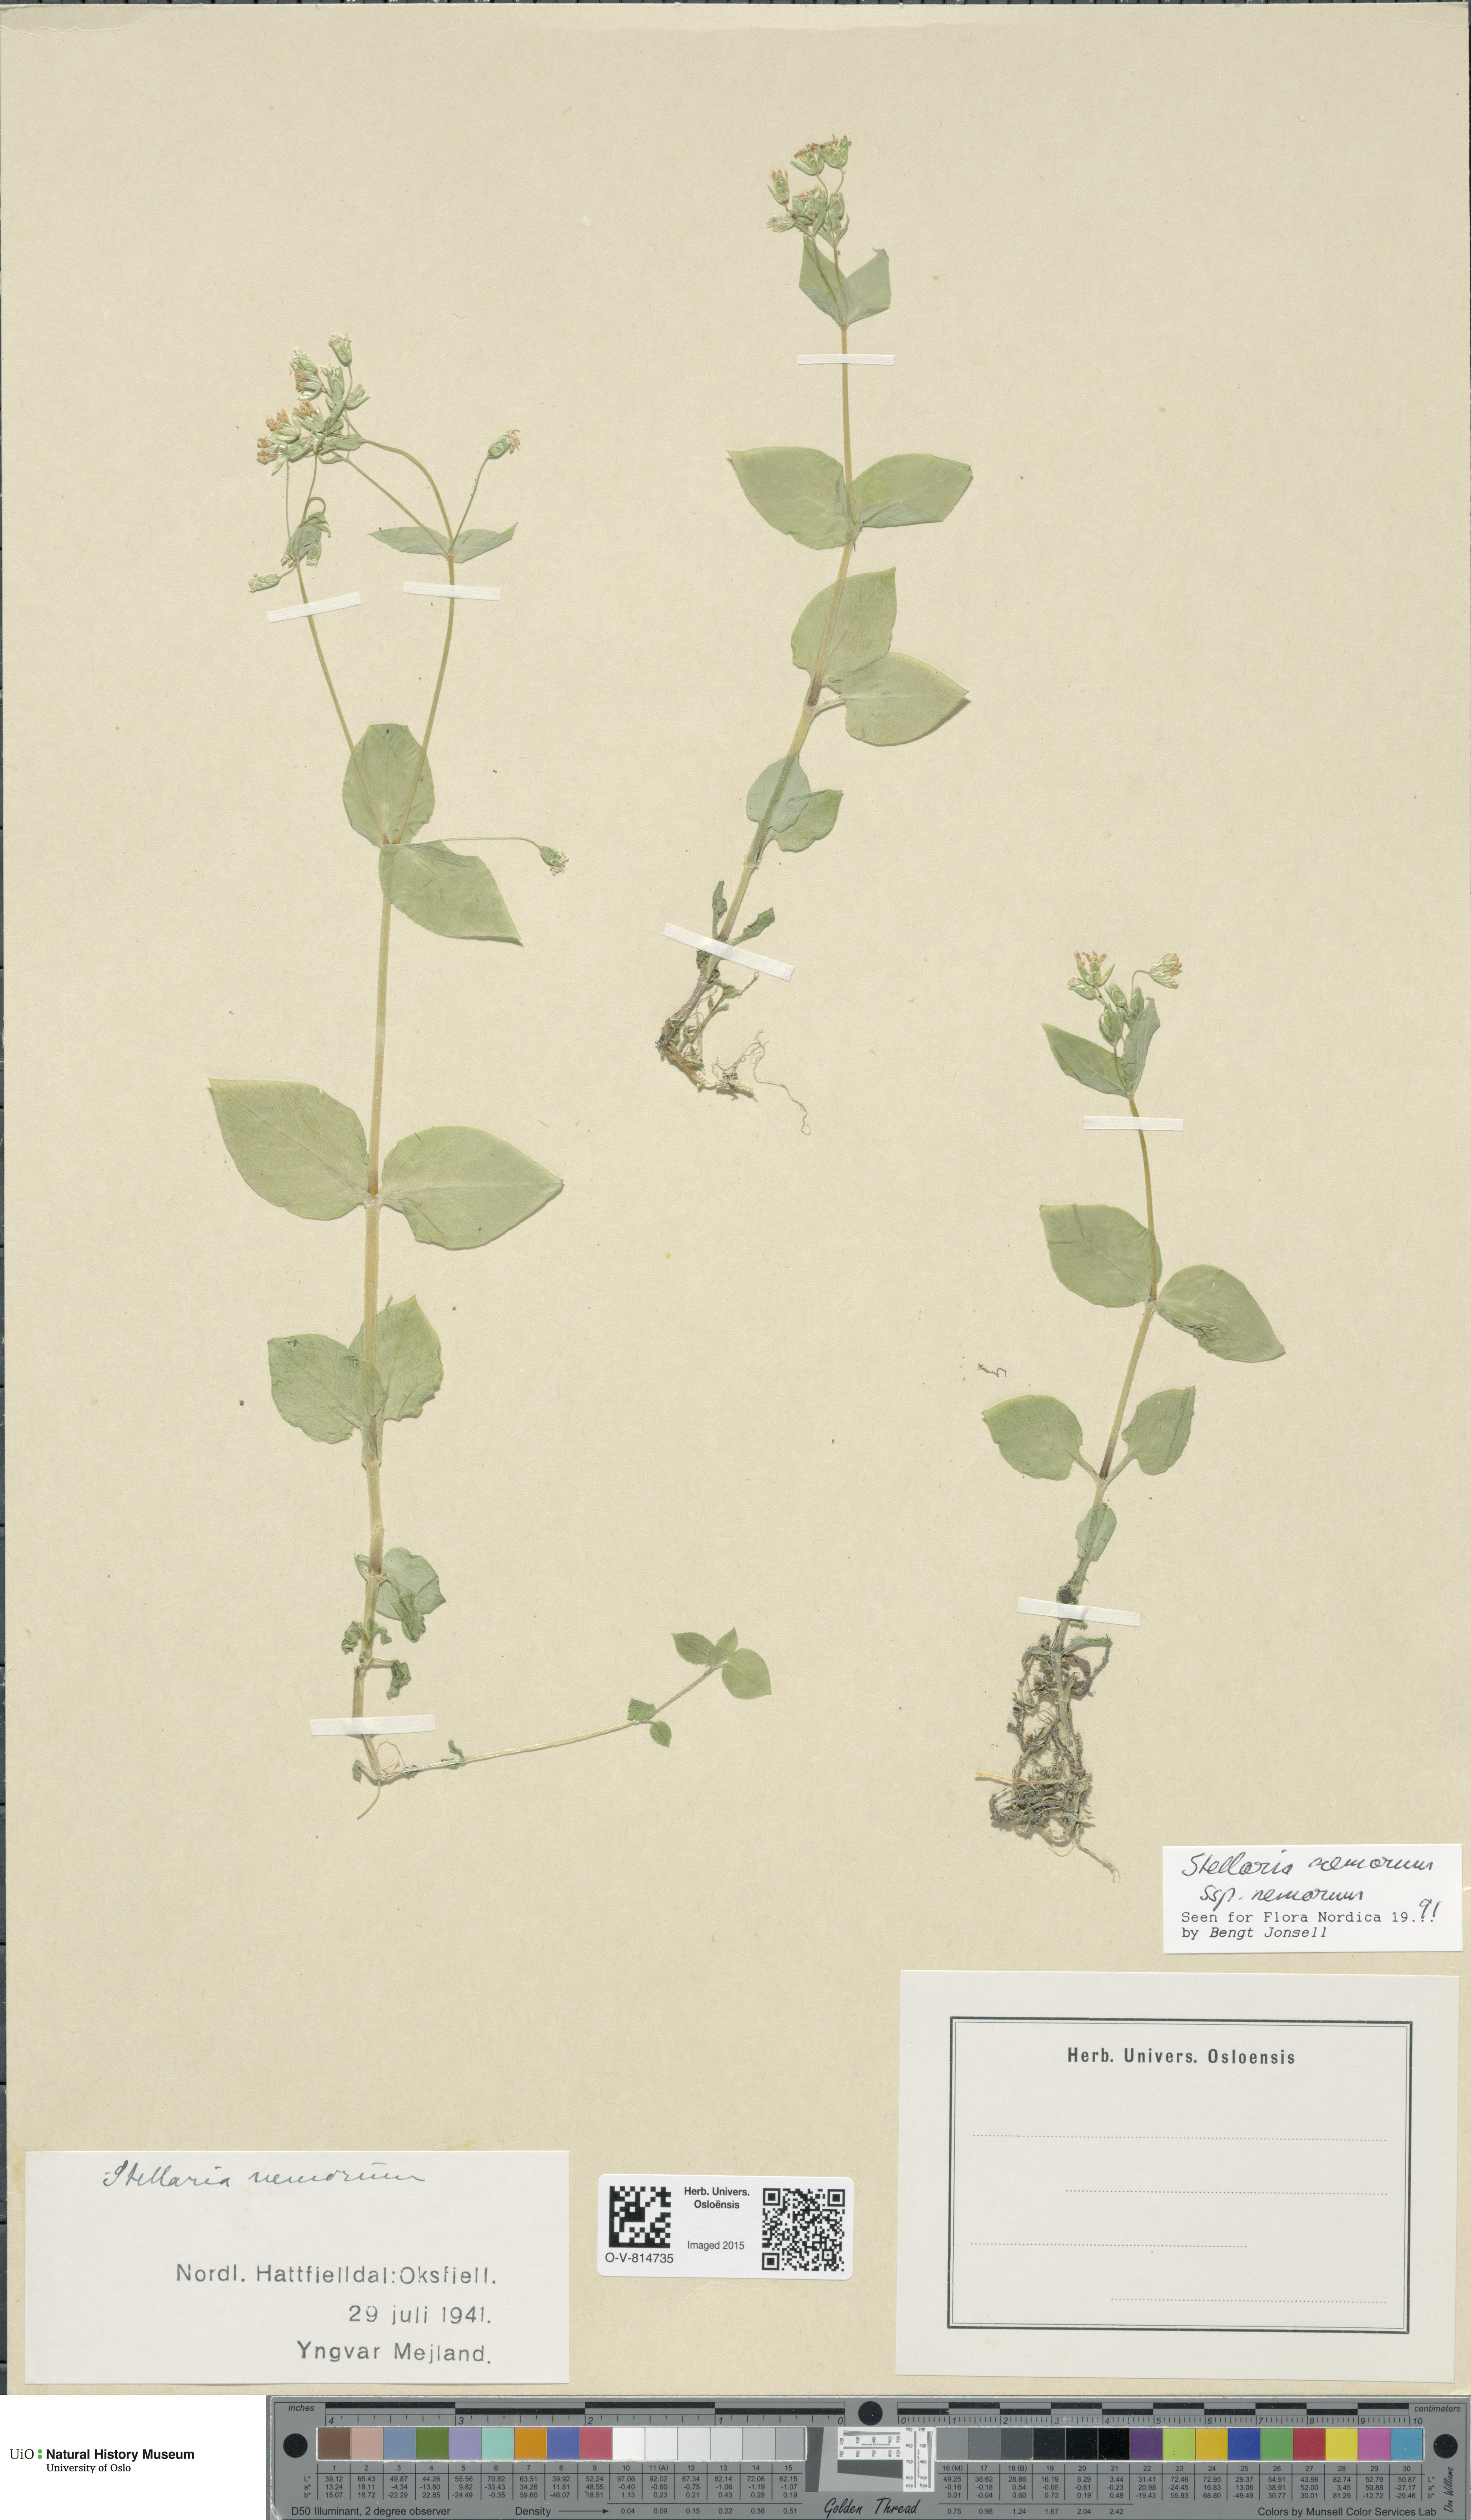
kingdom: Plantae
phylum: Tracheophyta
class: Magnoliopsida
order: Caryophyllales
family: Caryophyllaceae
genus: Stellaria
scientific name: Stellaria nemorum
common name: Wood stitchwort
